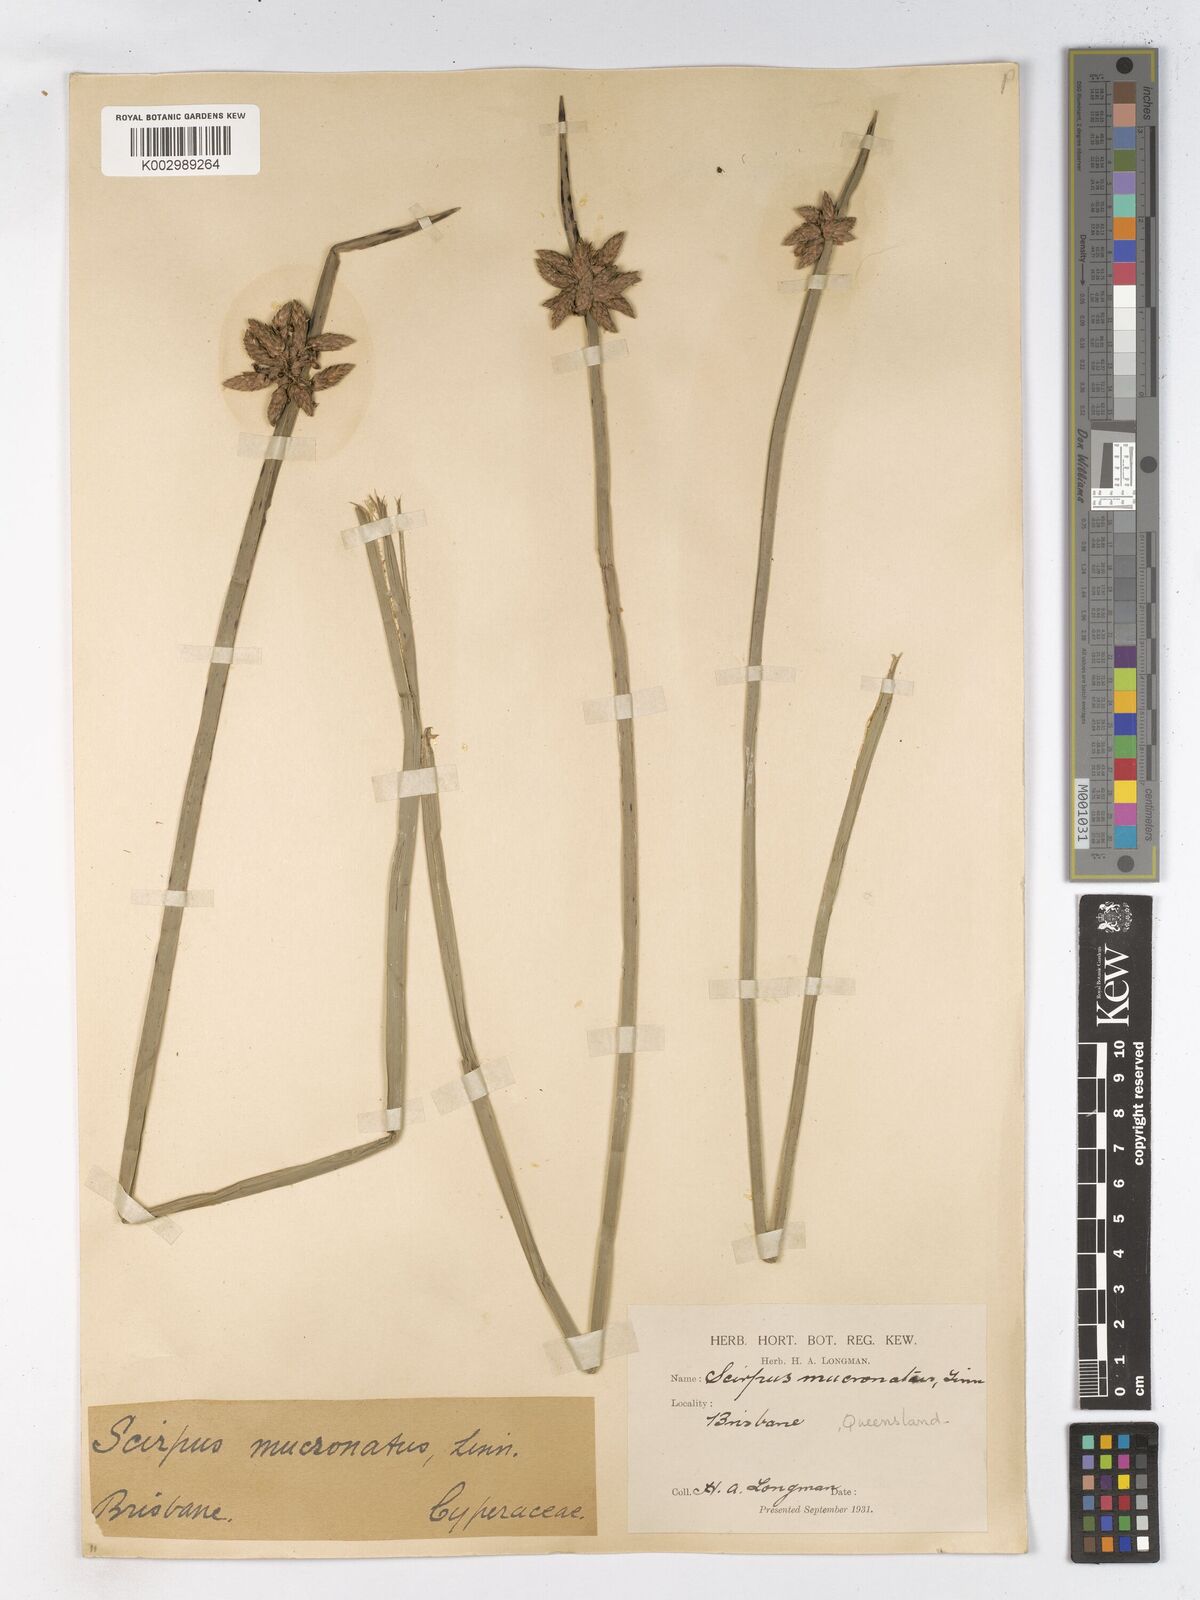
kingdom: Plantae
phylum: Tracheophyta
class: Liliopsida
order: Poales
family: Cyperaceae
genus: Schoenoplectiella
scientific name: Schoenoplectiella mucronata
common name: Bog bulrush
